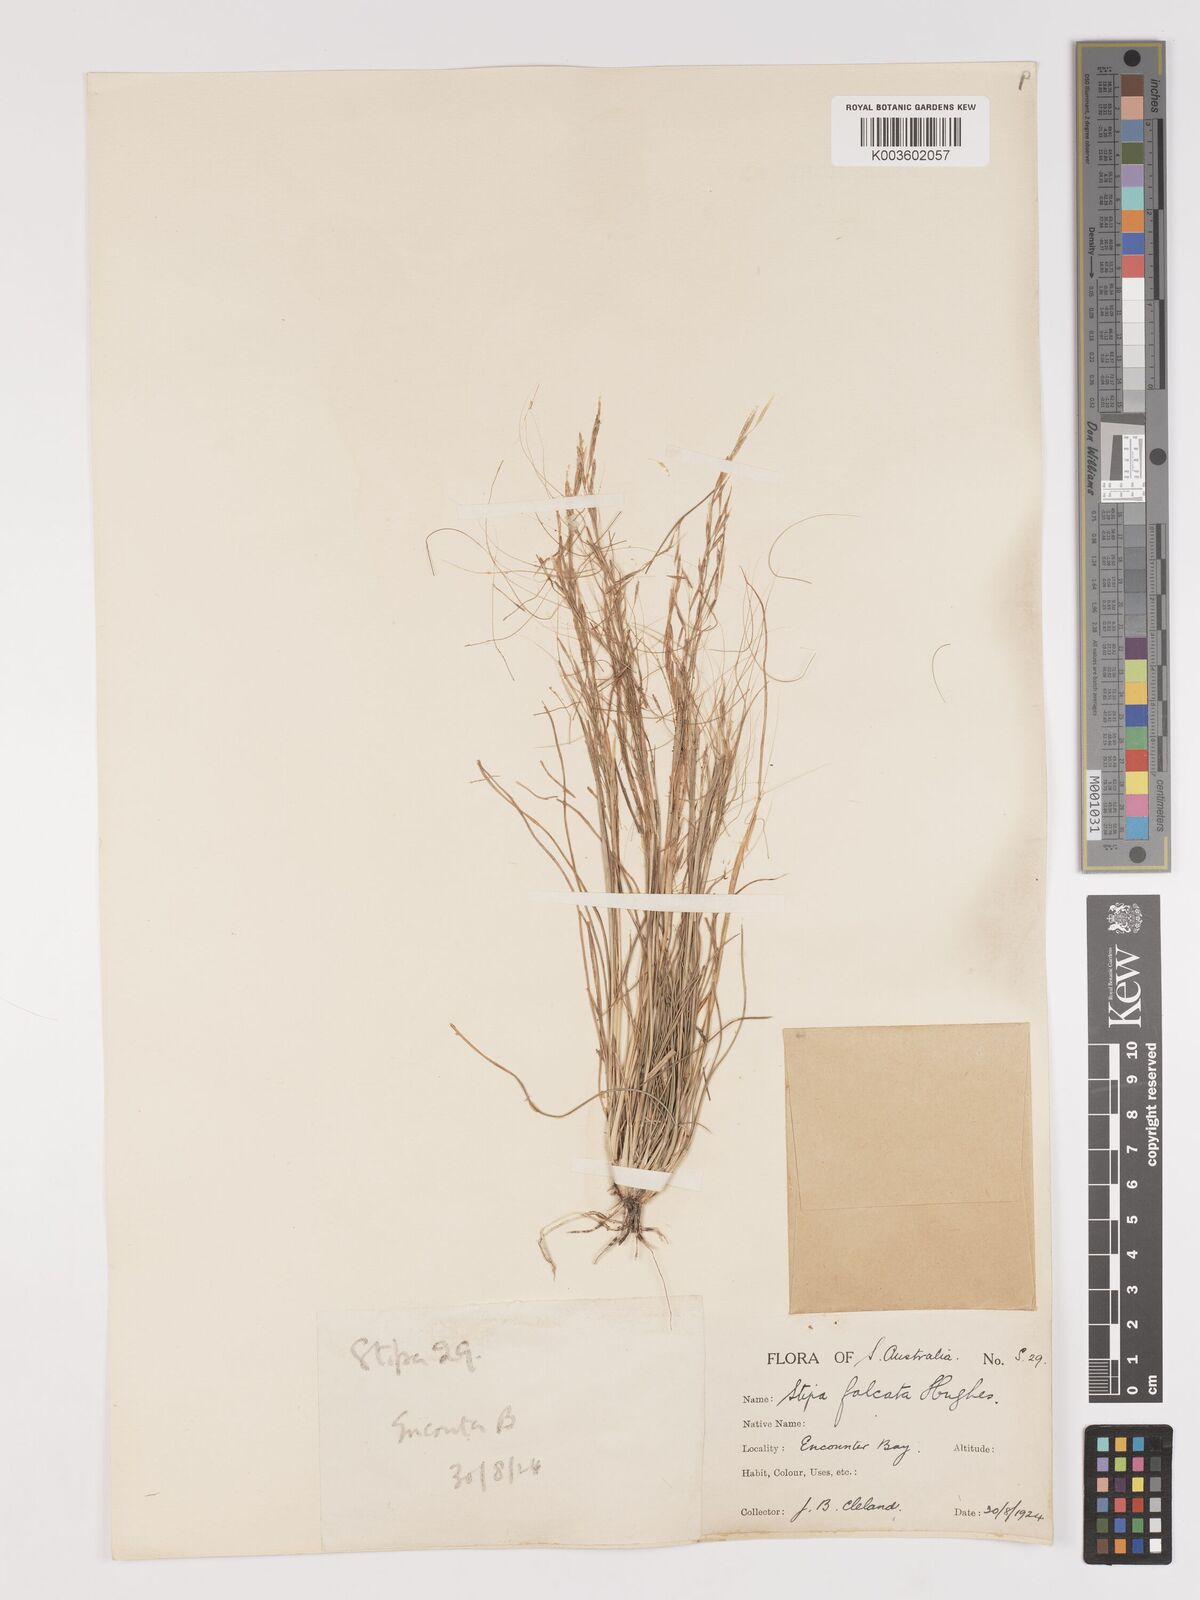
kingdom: Plantae
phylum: Tracheophyta
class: Liliopsida
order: Poales
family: Poaceae
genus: Austrostipa
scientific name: Austrostipa scabra
